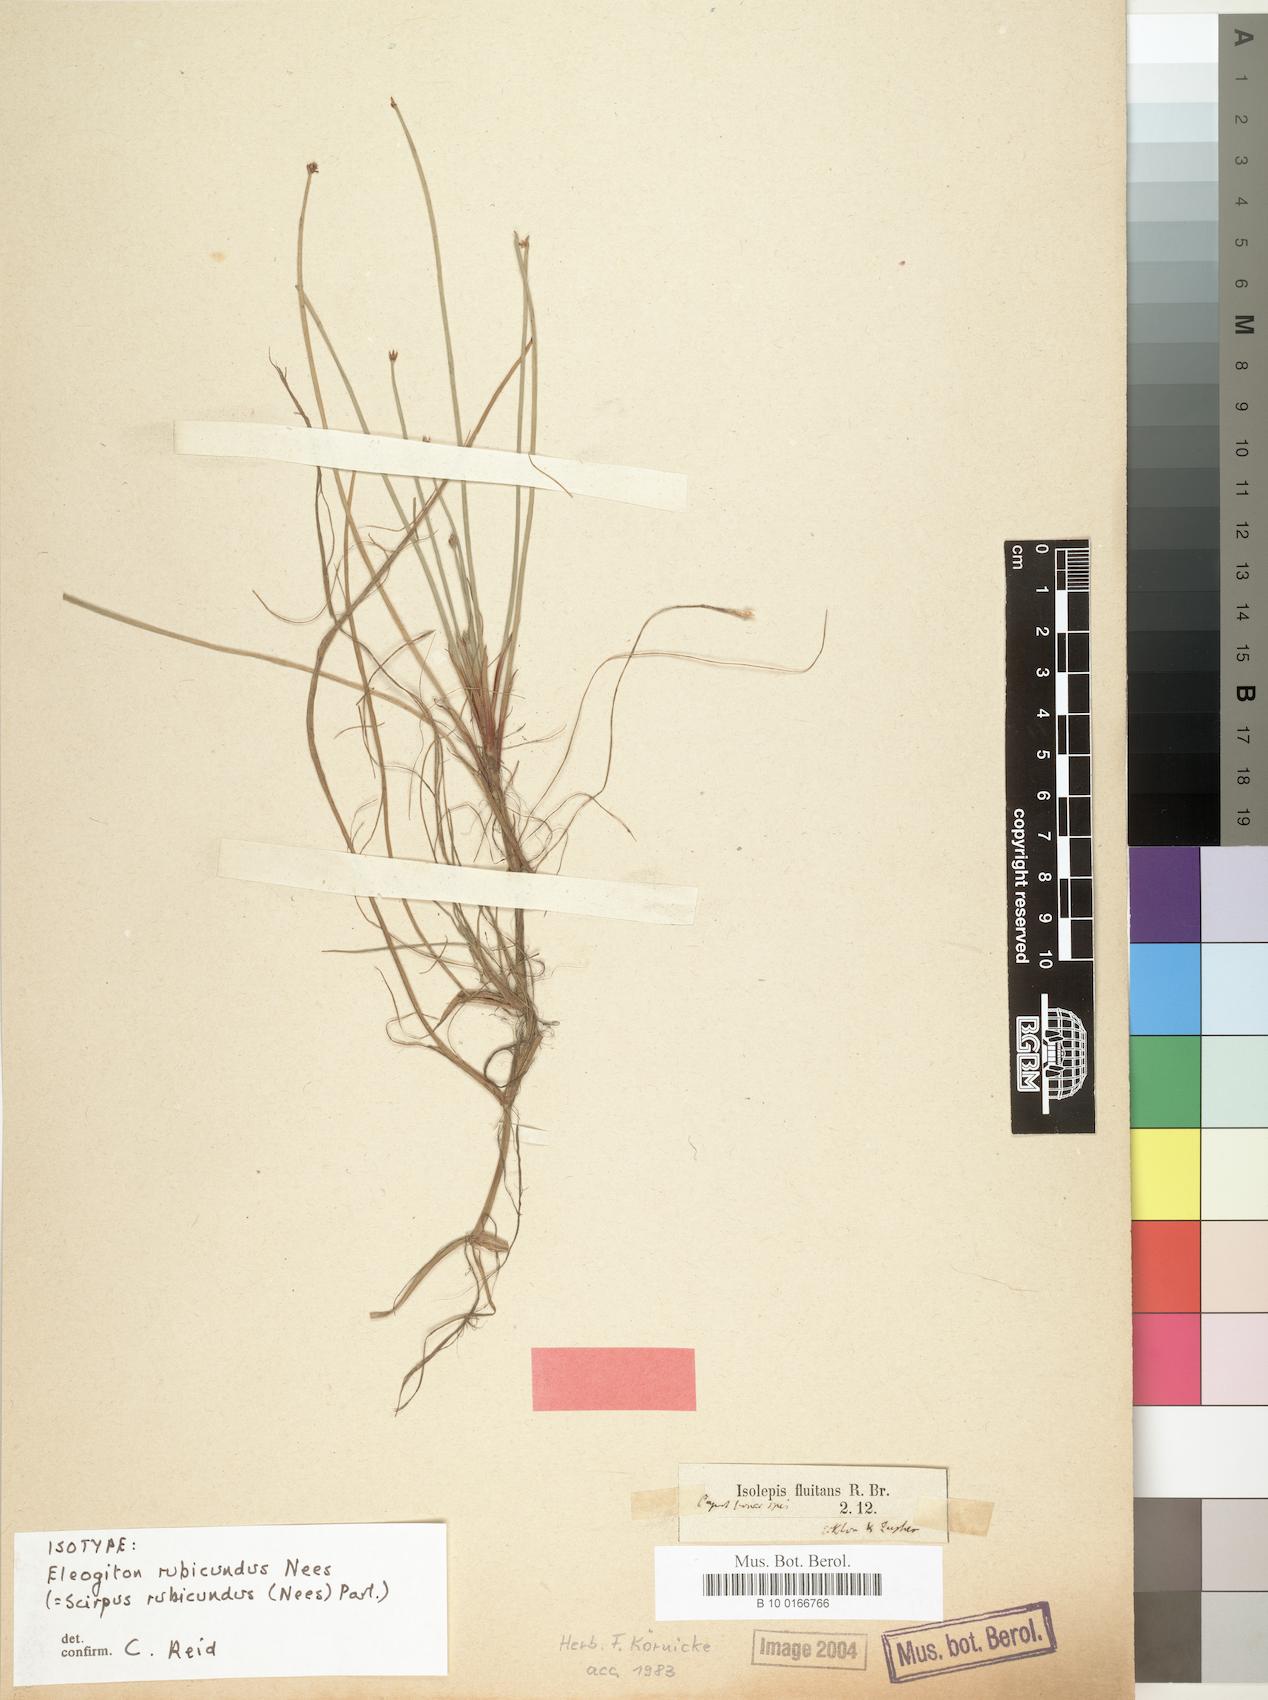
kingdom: Plantae
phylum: Tracheophyta
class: Liliopsida
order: Poales
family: Cyperaceae
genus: Isolepis
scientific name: Isolepis rubicunda
